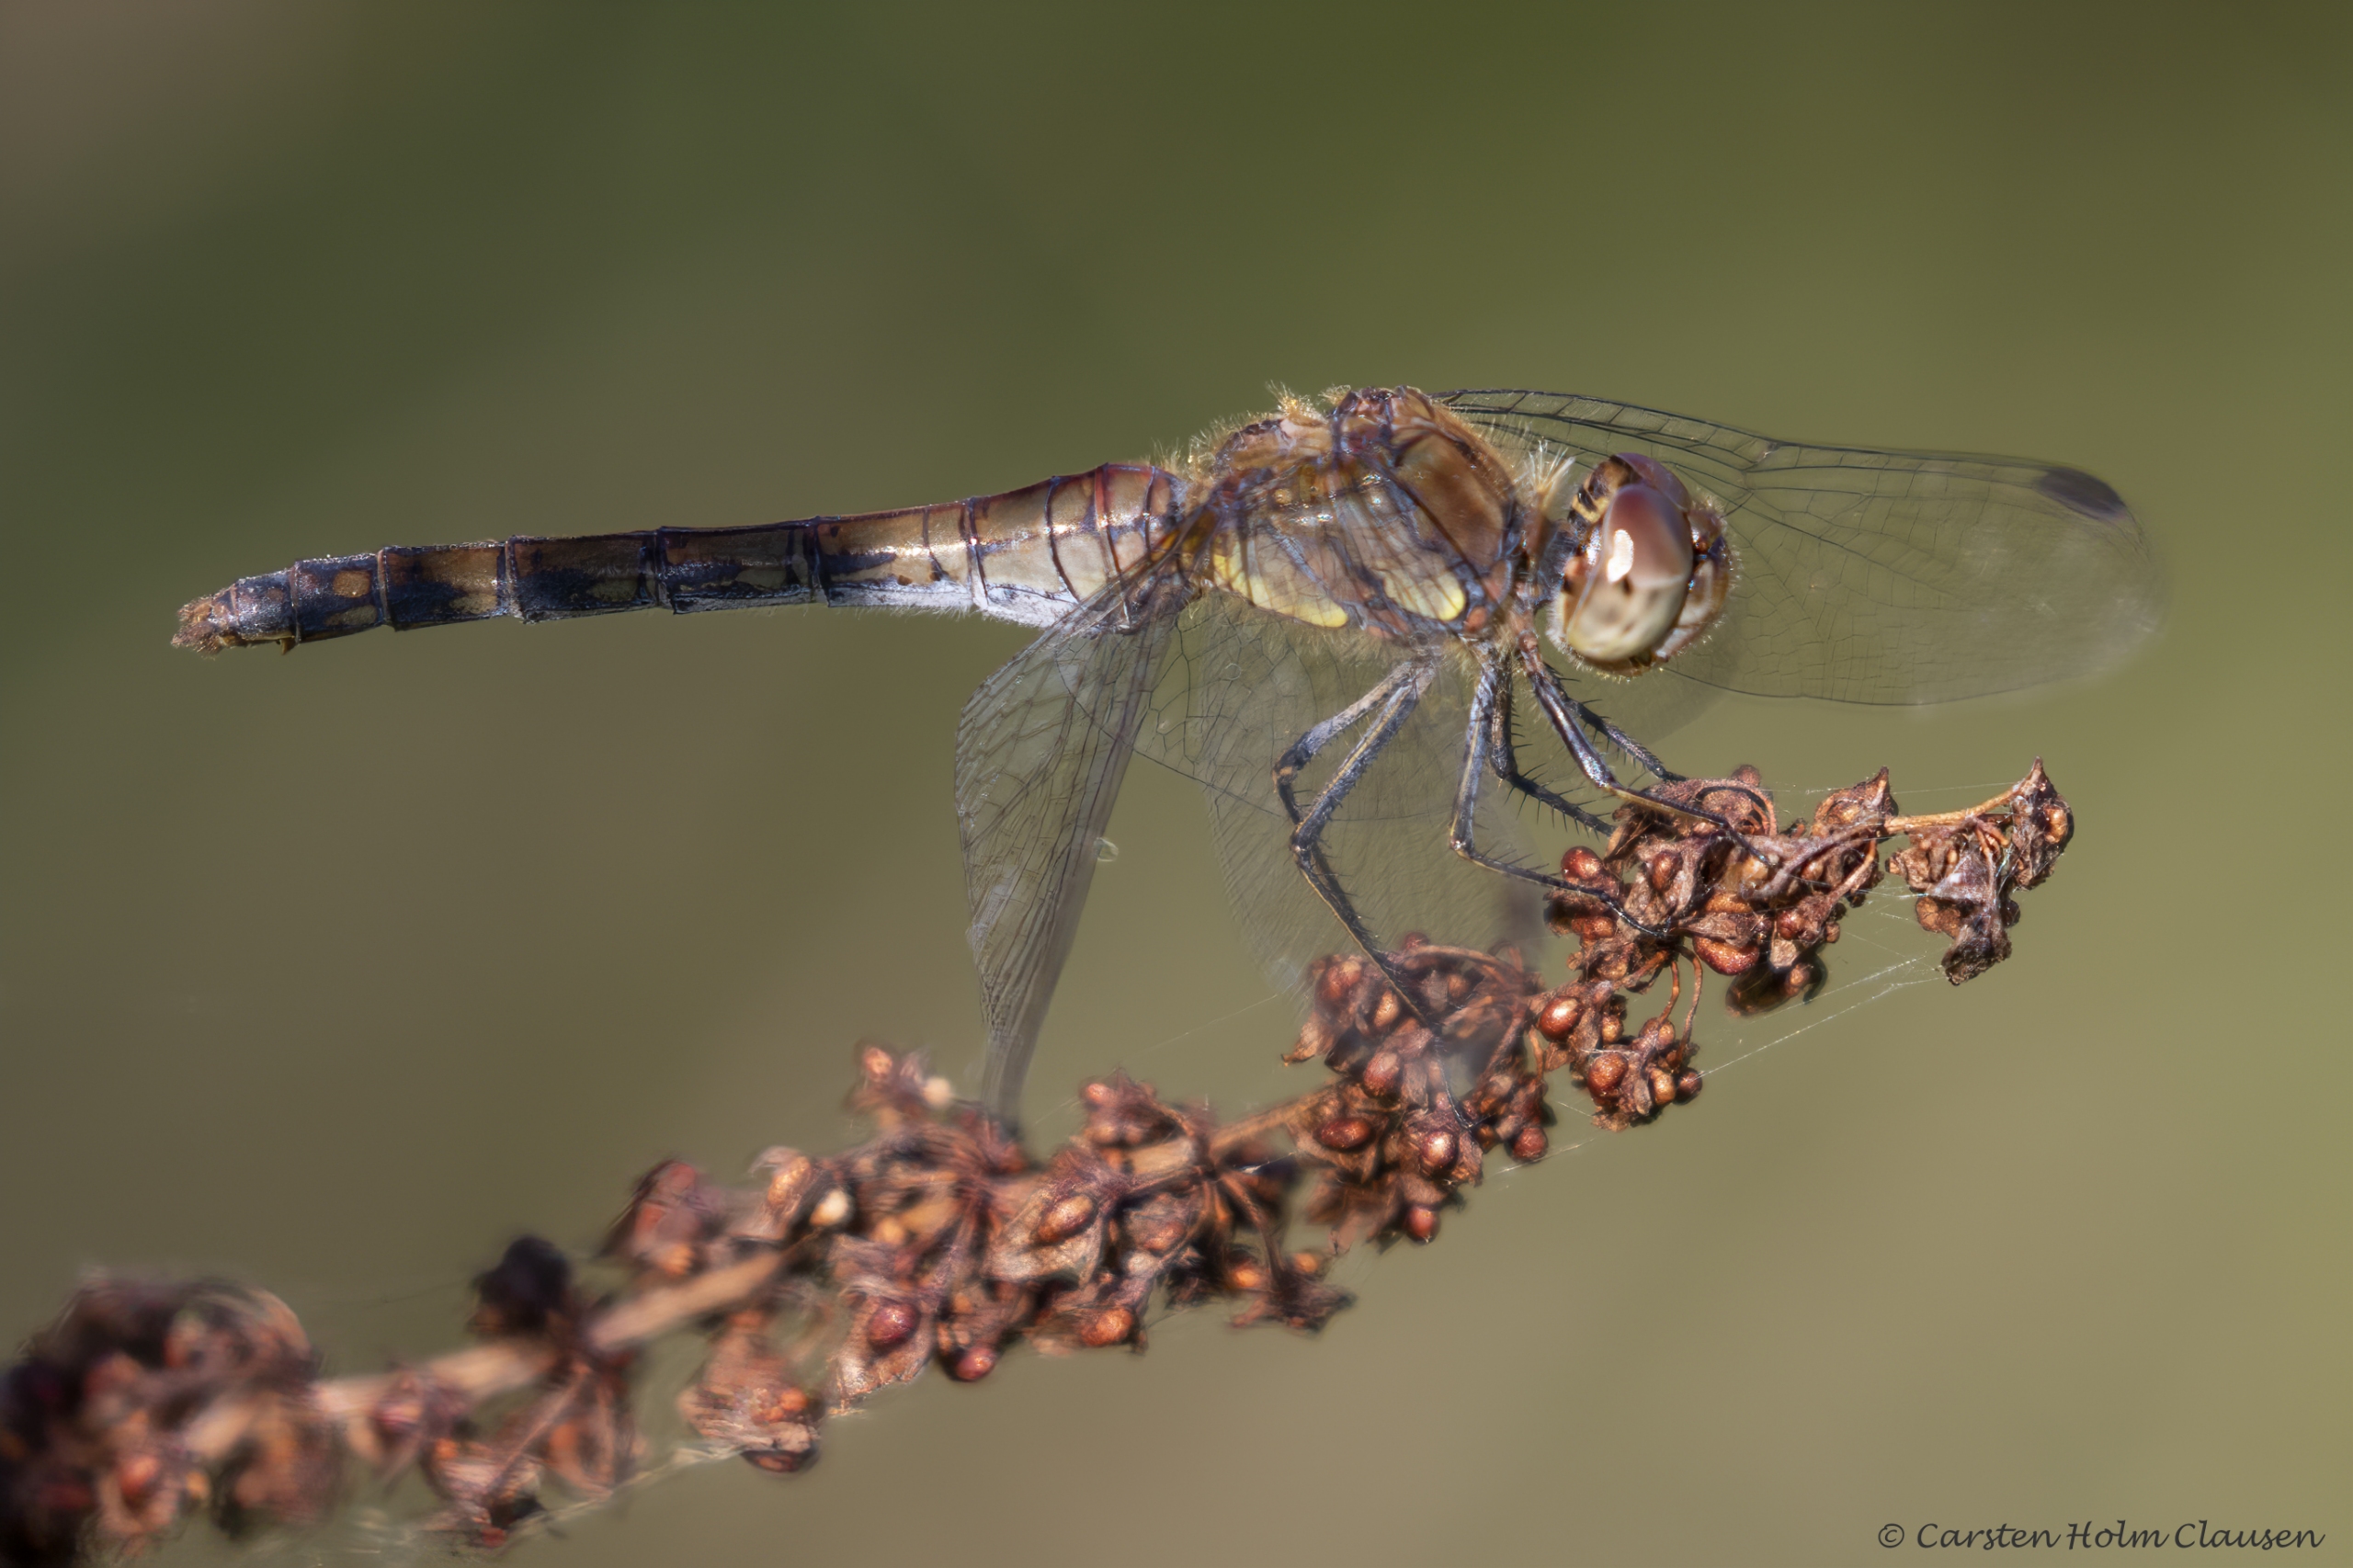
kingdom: Animalia
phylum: Arthropoda
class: Insecta
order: Odonata
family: Libellulidae
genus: Sympetrum
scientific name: Sympetrum striolatum
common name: Stor hedelibel
